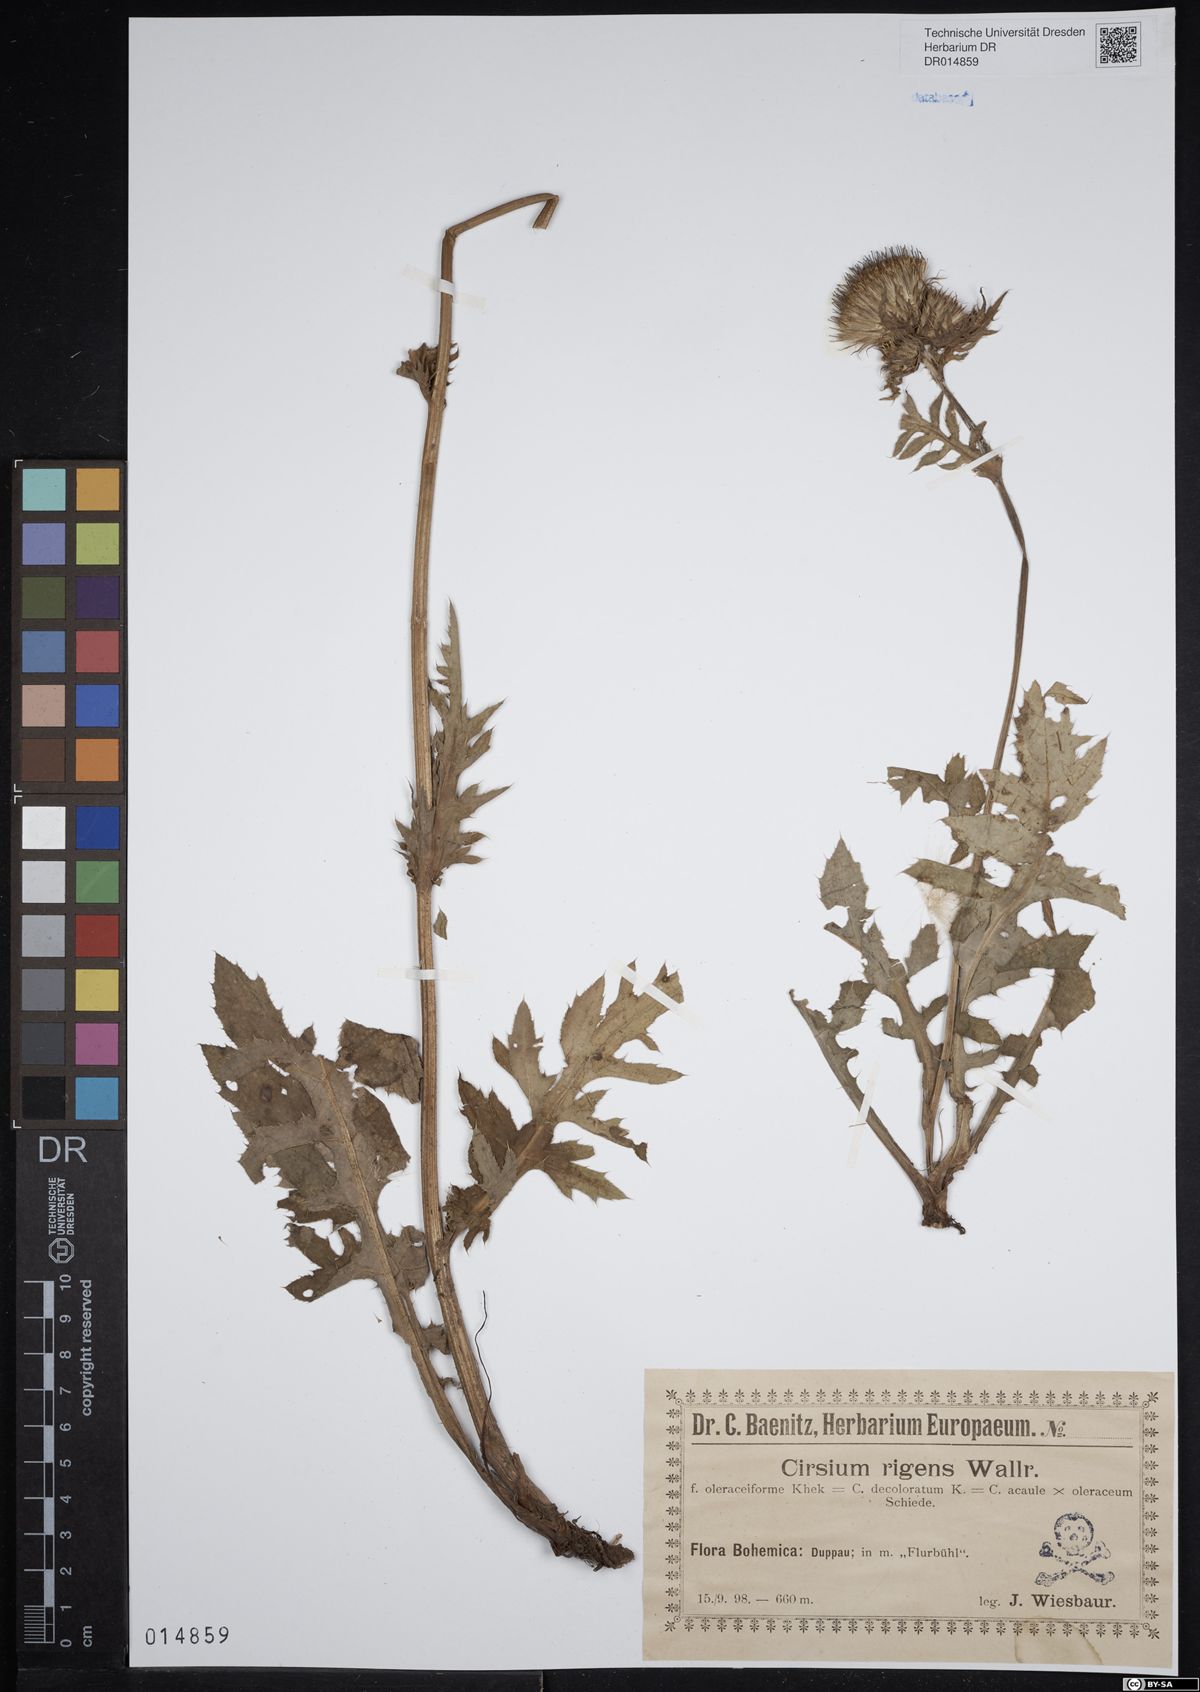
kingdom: Plantae
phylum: Tracheophyta
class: Magnoliopsida
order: Asterales
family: Asteraceae
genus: Cirsium
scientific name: Cirsium rigens
